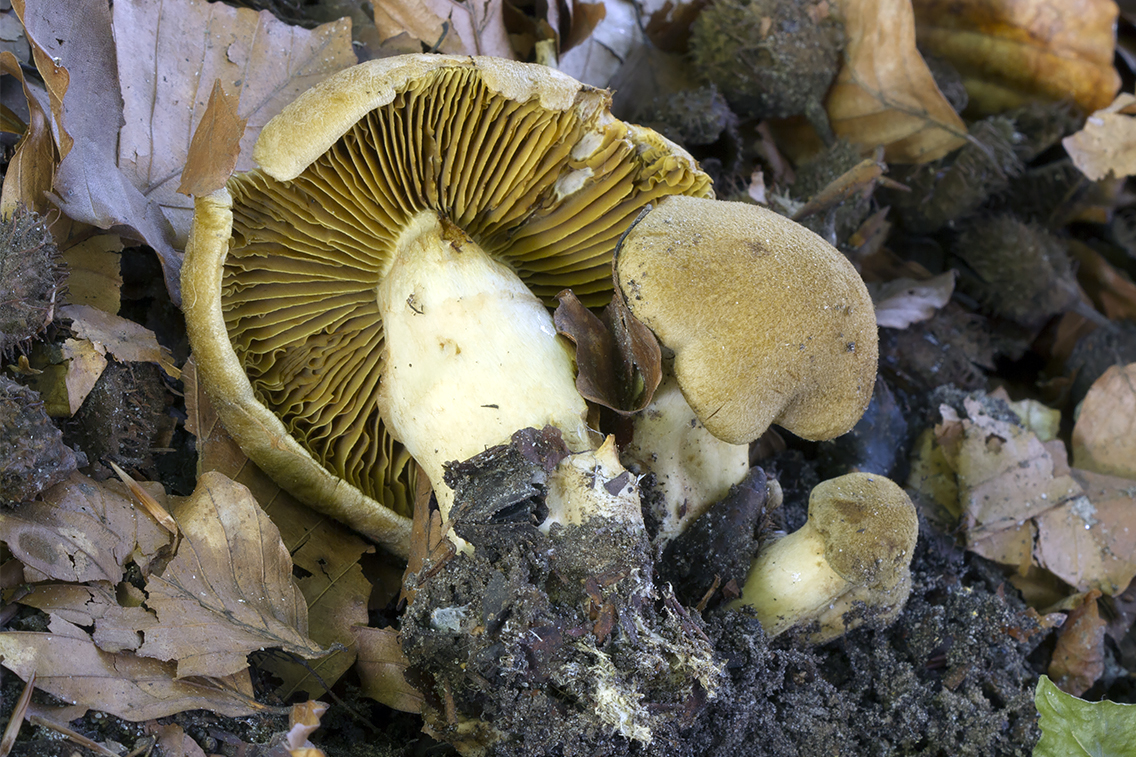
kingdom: Fungi
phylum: Basidiomycota
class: Agaricomycetes
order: Agaricales
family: Cortinariaceae
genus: Cortinarius
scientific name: Cortinarius subcotoneus
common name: gyldenbladet slørhat
